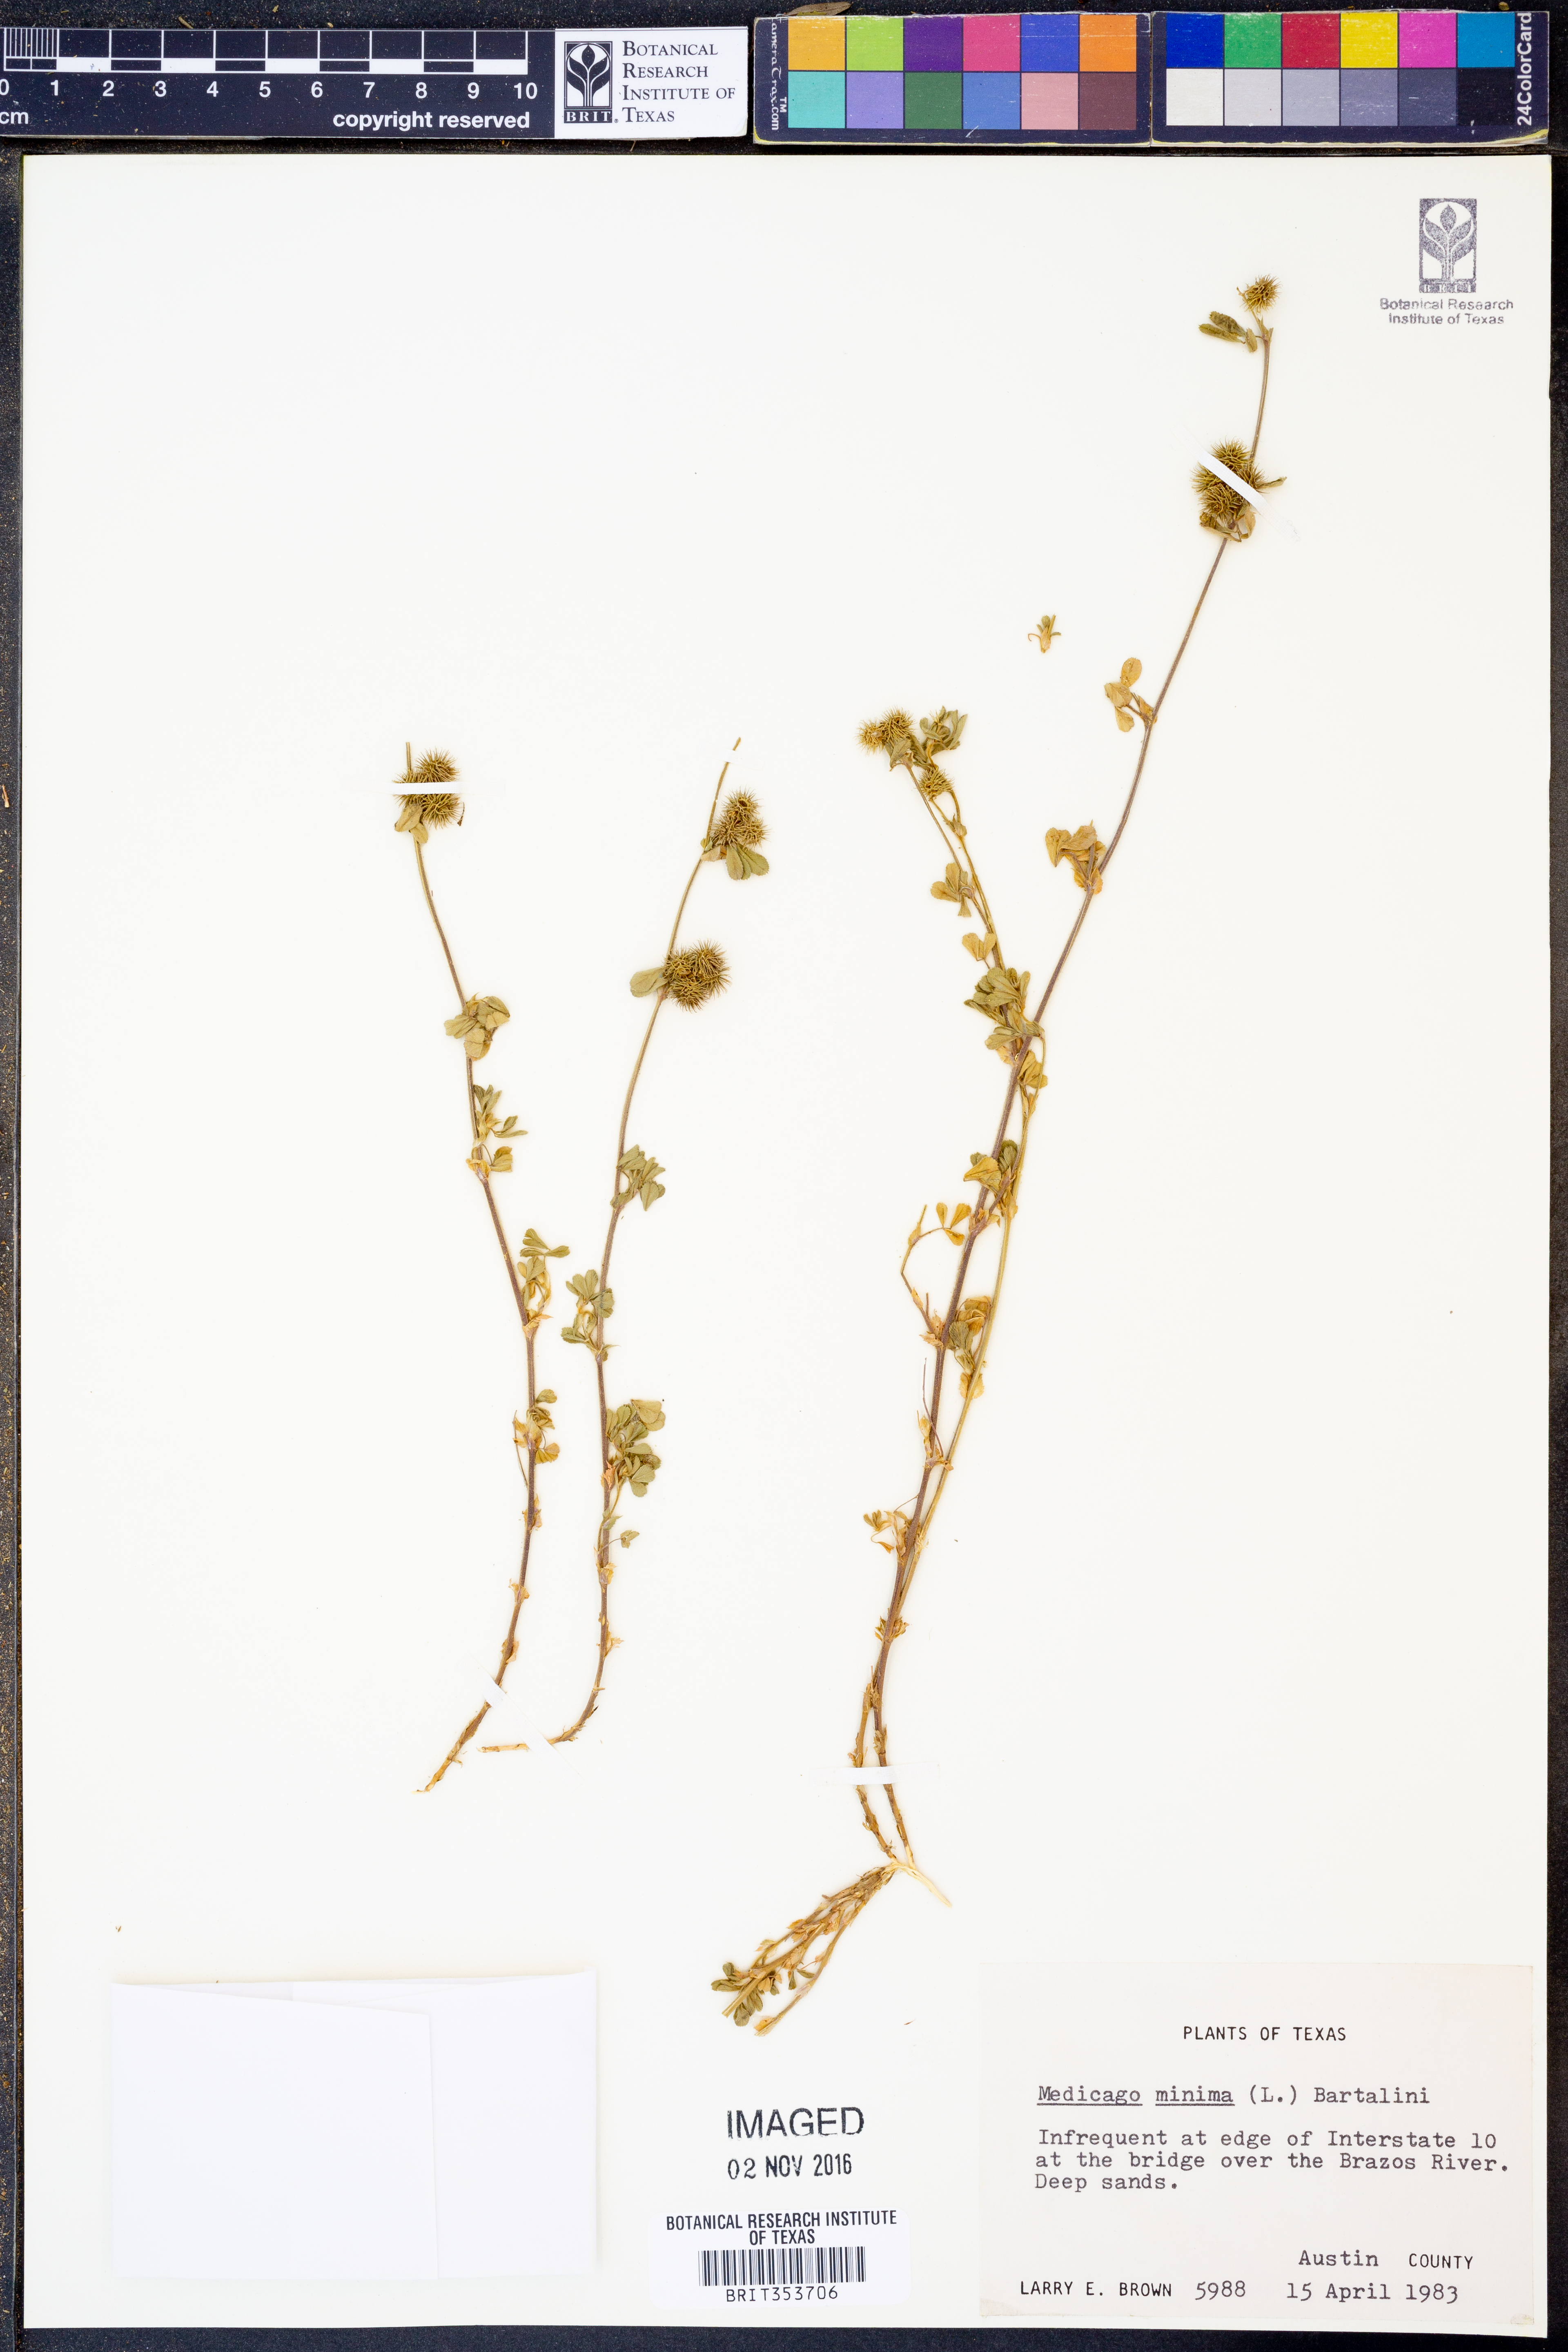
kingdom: Plantae
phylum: Tracheophyta
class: Magnoliopsida
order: Fabales
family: Fabaceae
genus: Medicago
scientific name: Medicago minima
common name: Little bur-clover
